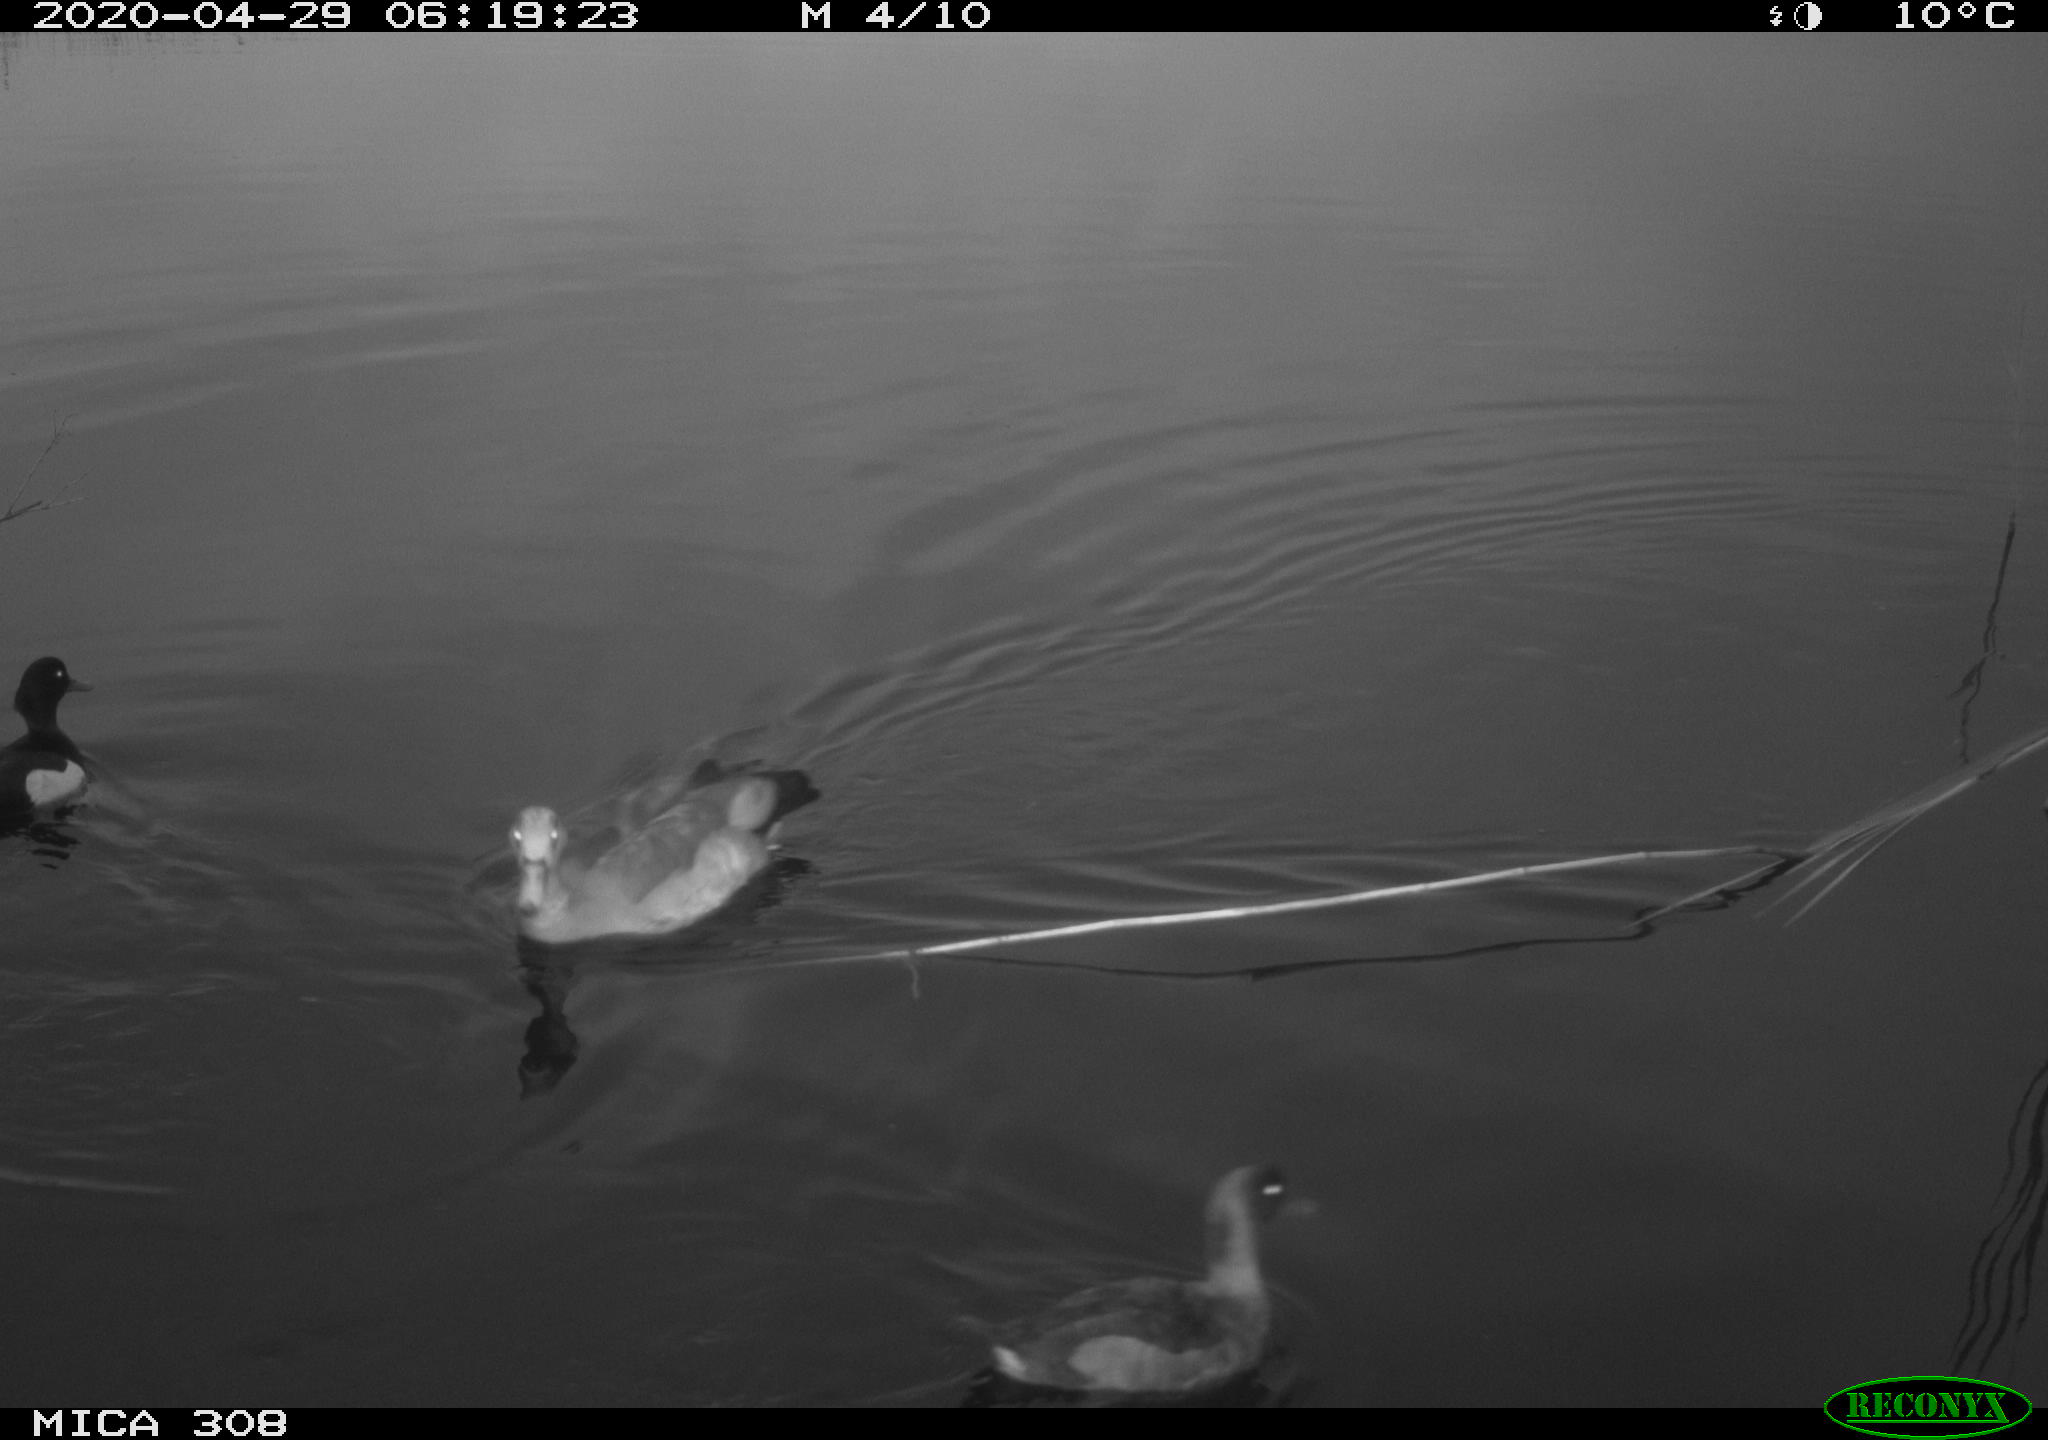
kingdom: Animalia
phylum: Chordata
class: Aves
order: Anseriformes
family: Anatidae
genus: Alopochen
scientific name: Alopochen aegyptiaca
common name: Egyptian goose
